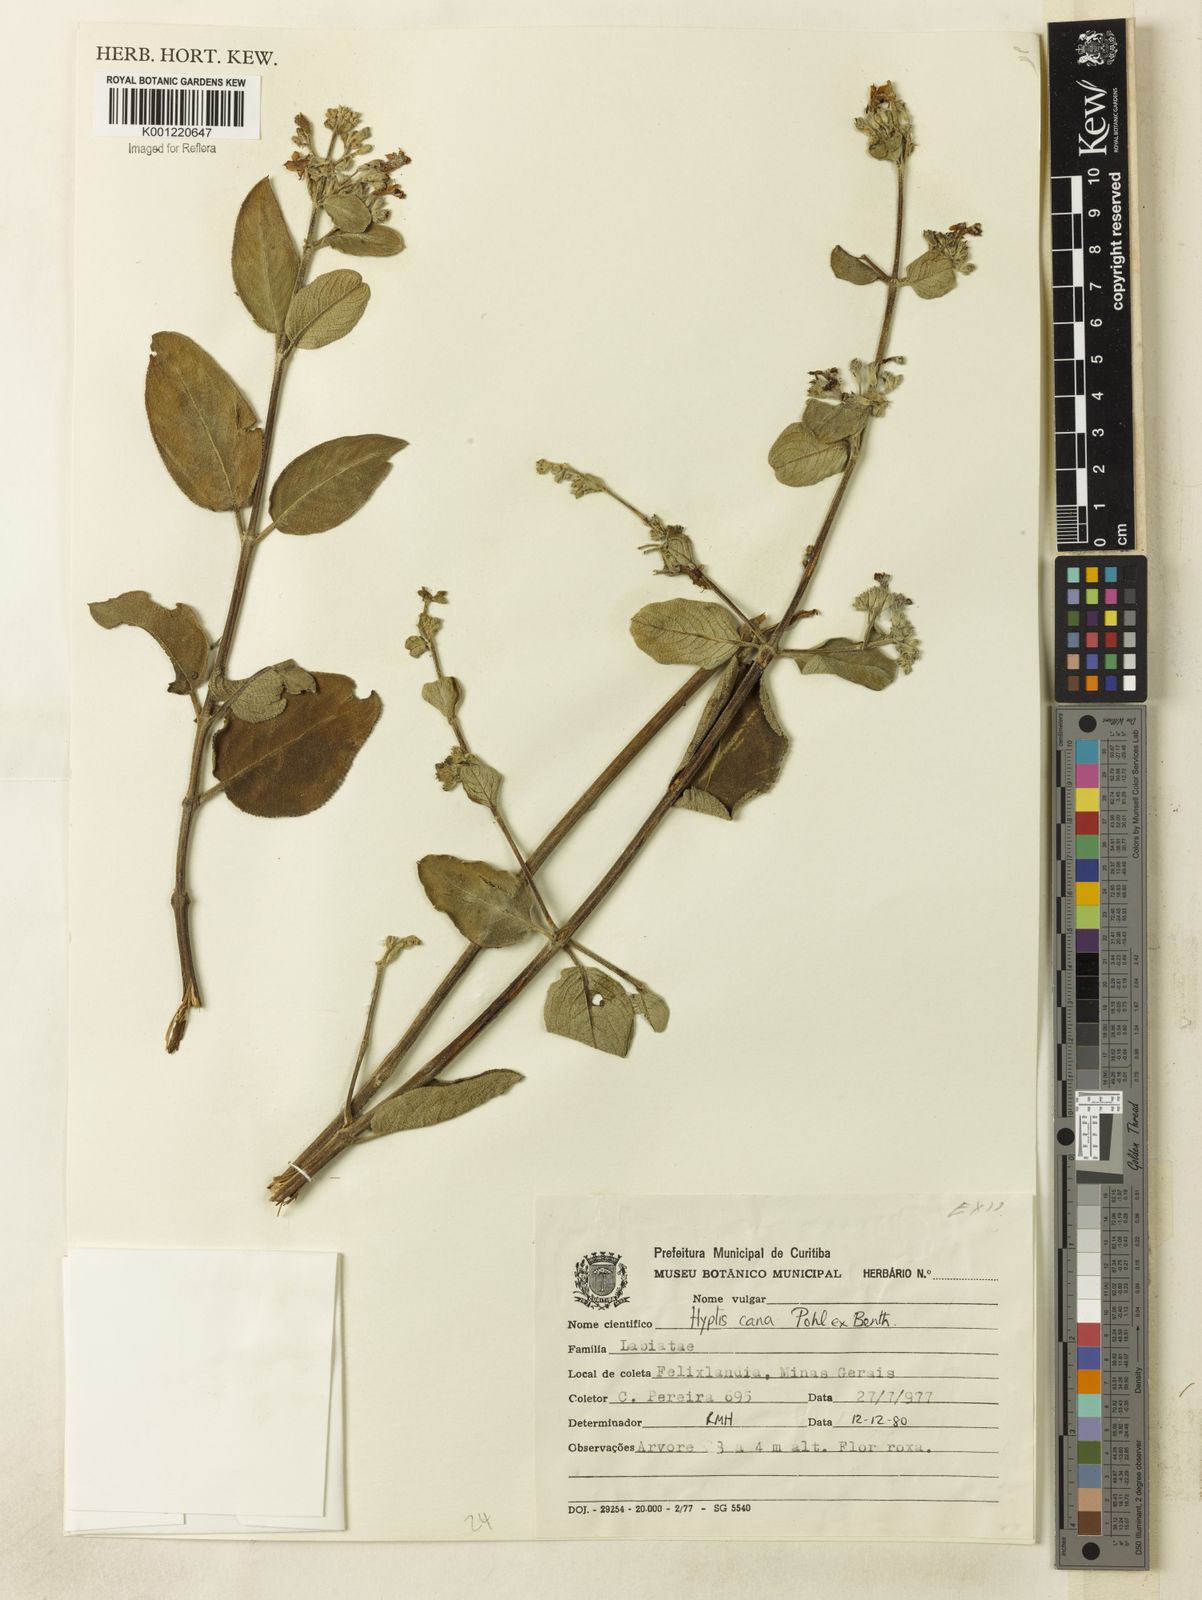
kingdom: Plantae
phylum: Tracheophyta
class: Magnoliopsida
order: Lamiales
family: Lamiaceae
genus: Hyptidendron
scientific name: Hyptidendron canum
